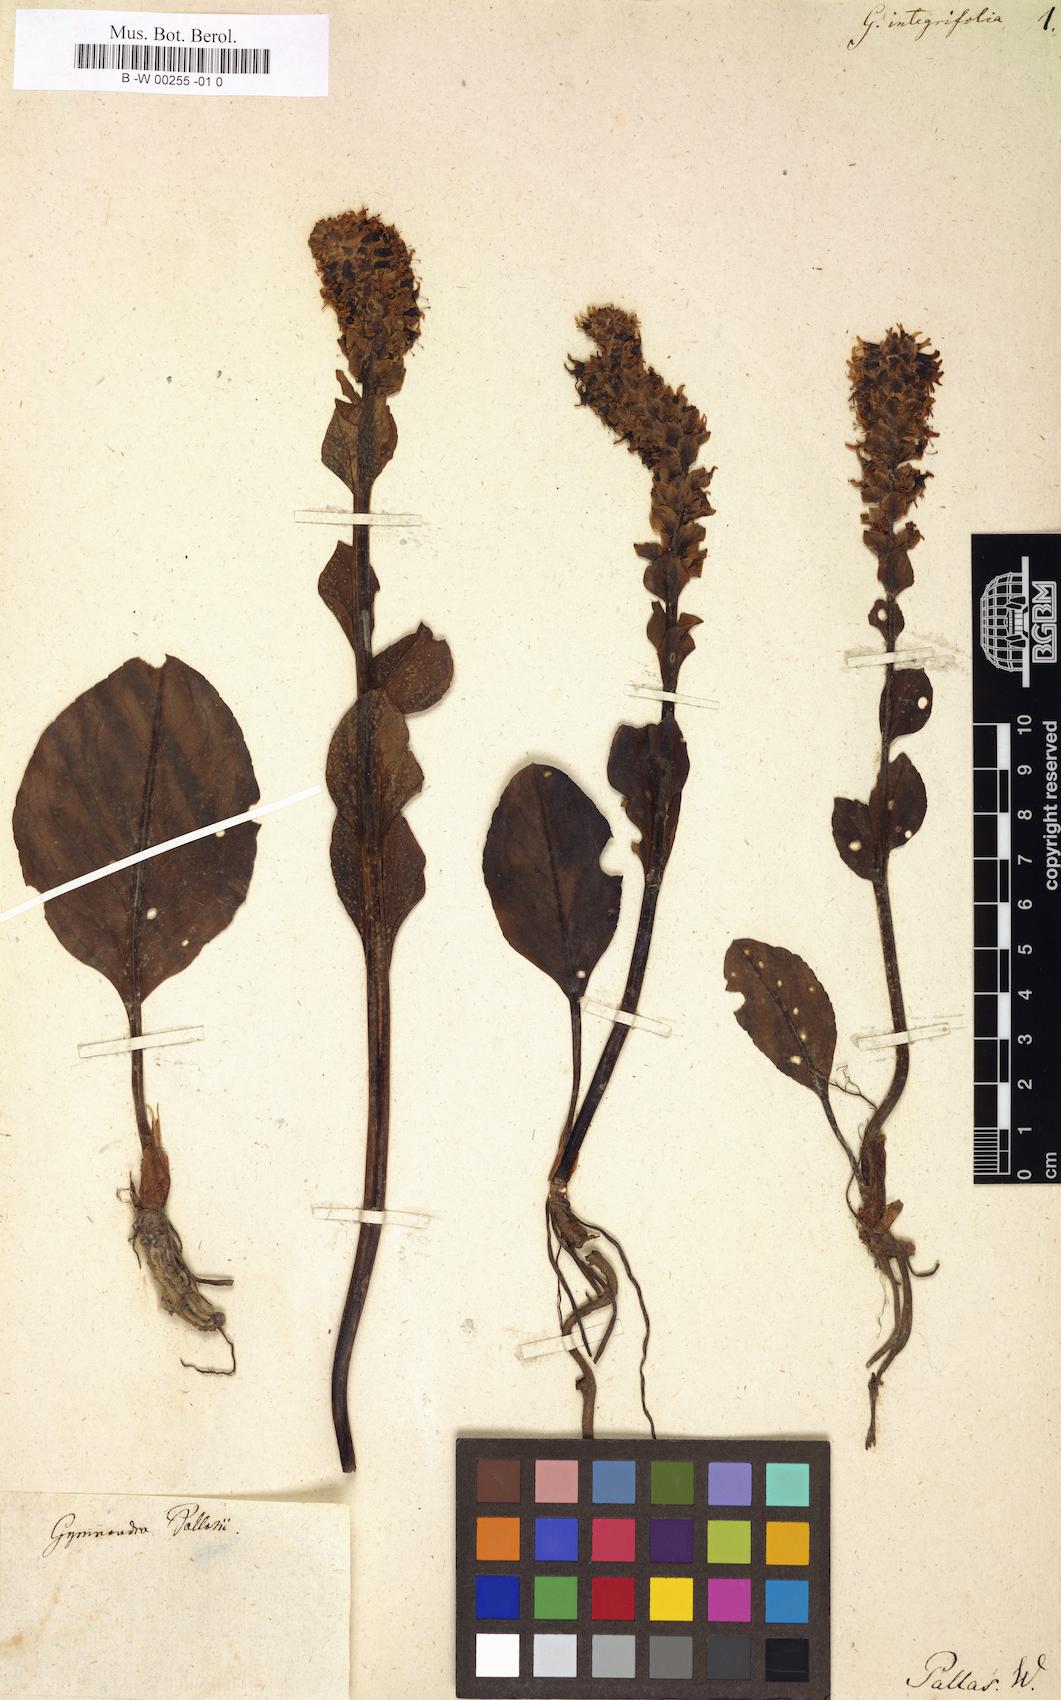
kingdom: Plantae
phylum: Tracheophyta
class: Magnoliopsida
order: Lamiales
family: Plantaginaceae
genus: Lagotis
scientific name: Lagotis integrifolia
